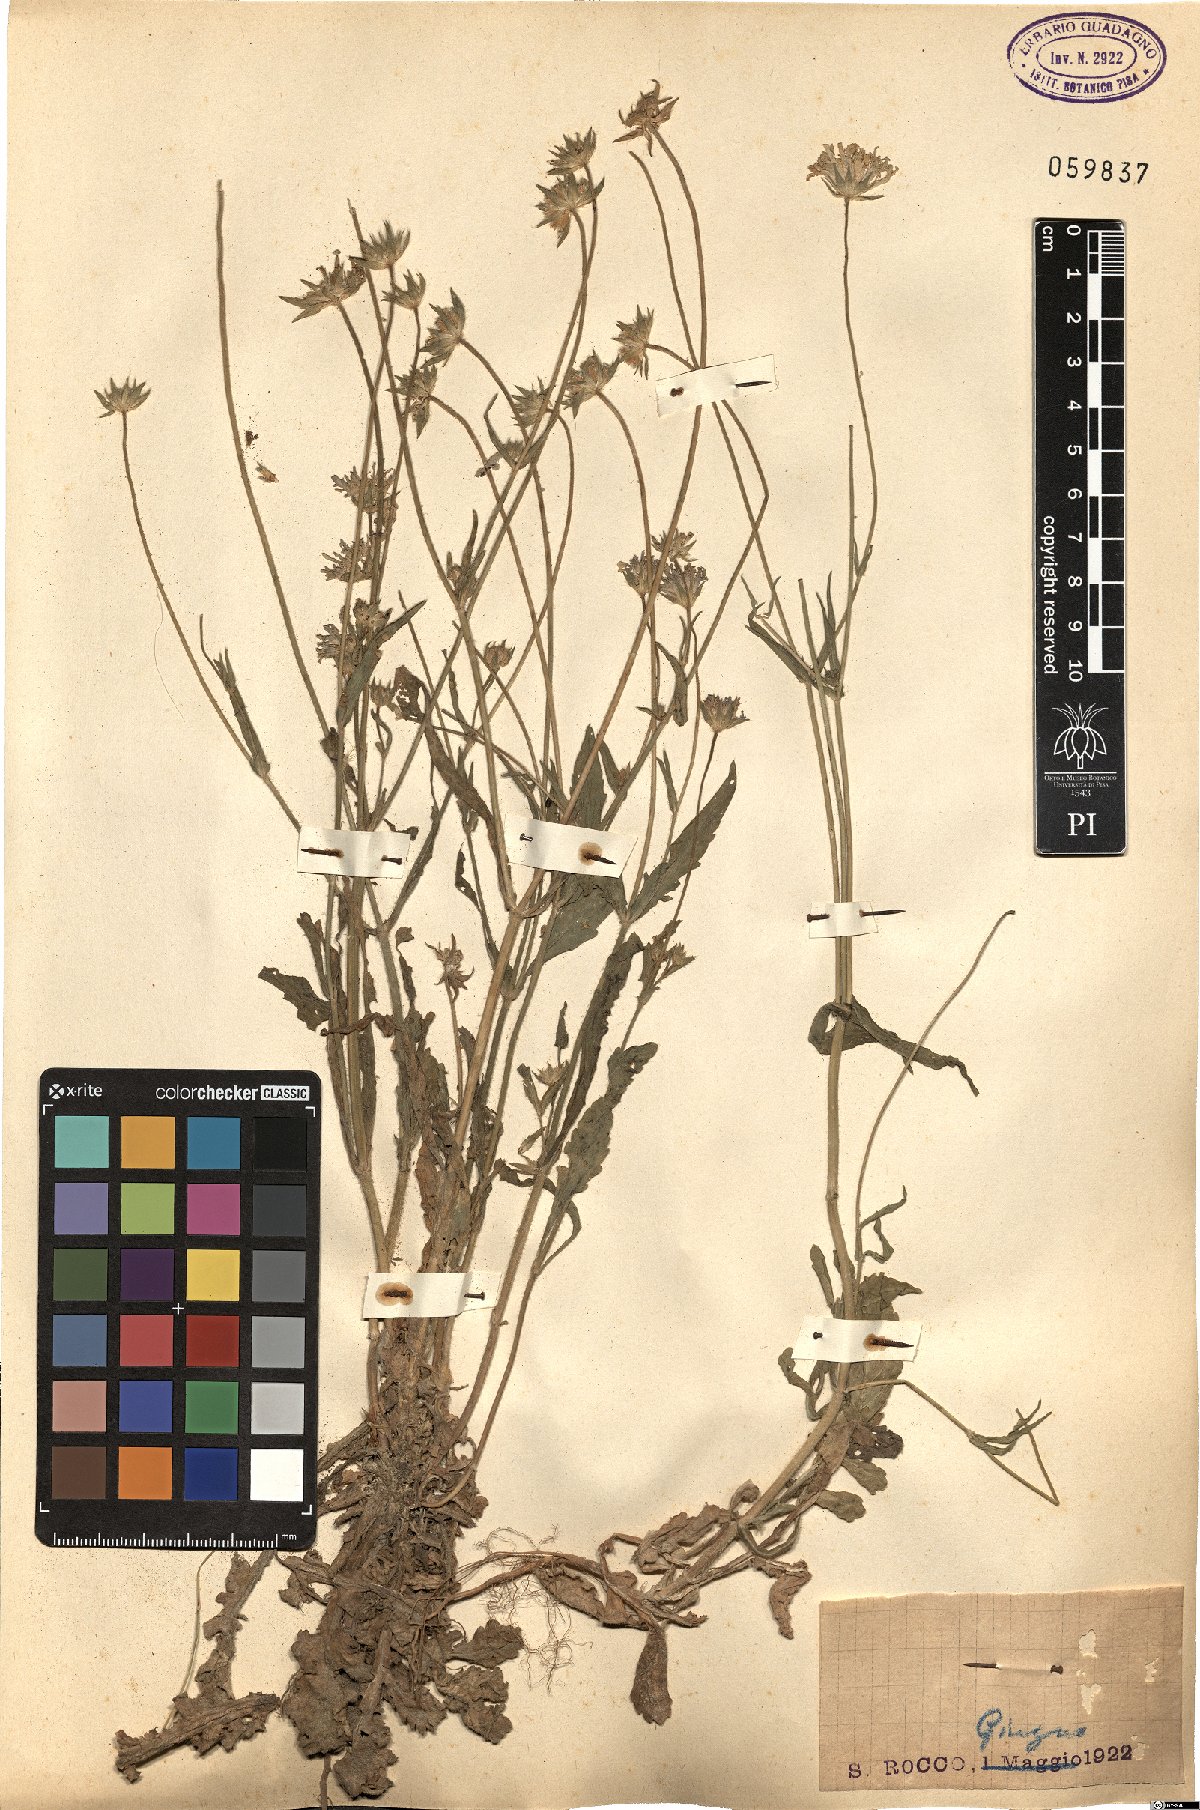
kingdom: Plantae
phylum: Tracheophyta
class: Magnoliopsida
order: Dipsacales
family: Caprifoliaceae
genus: Scabiosa
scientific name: Scabiosa
